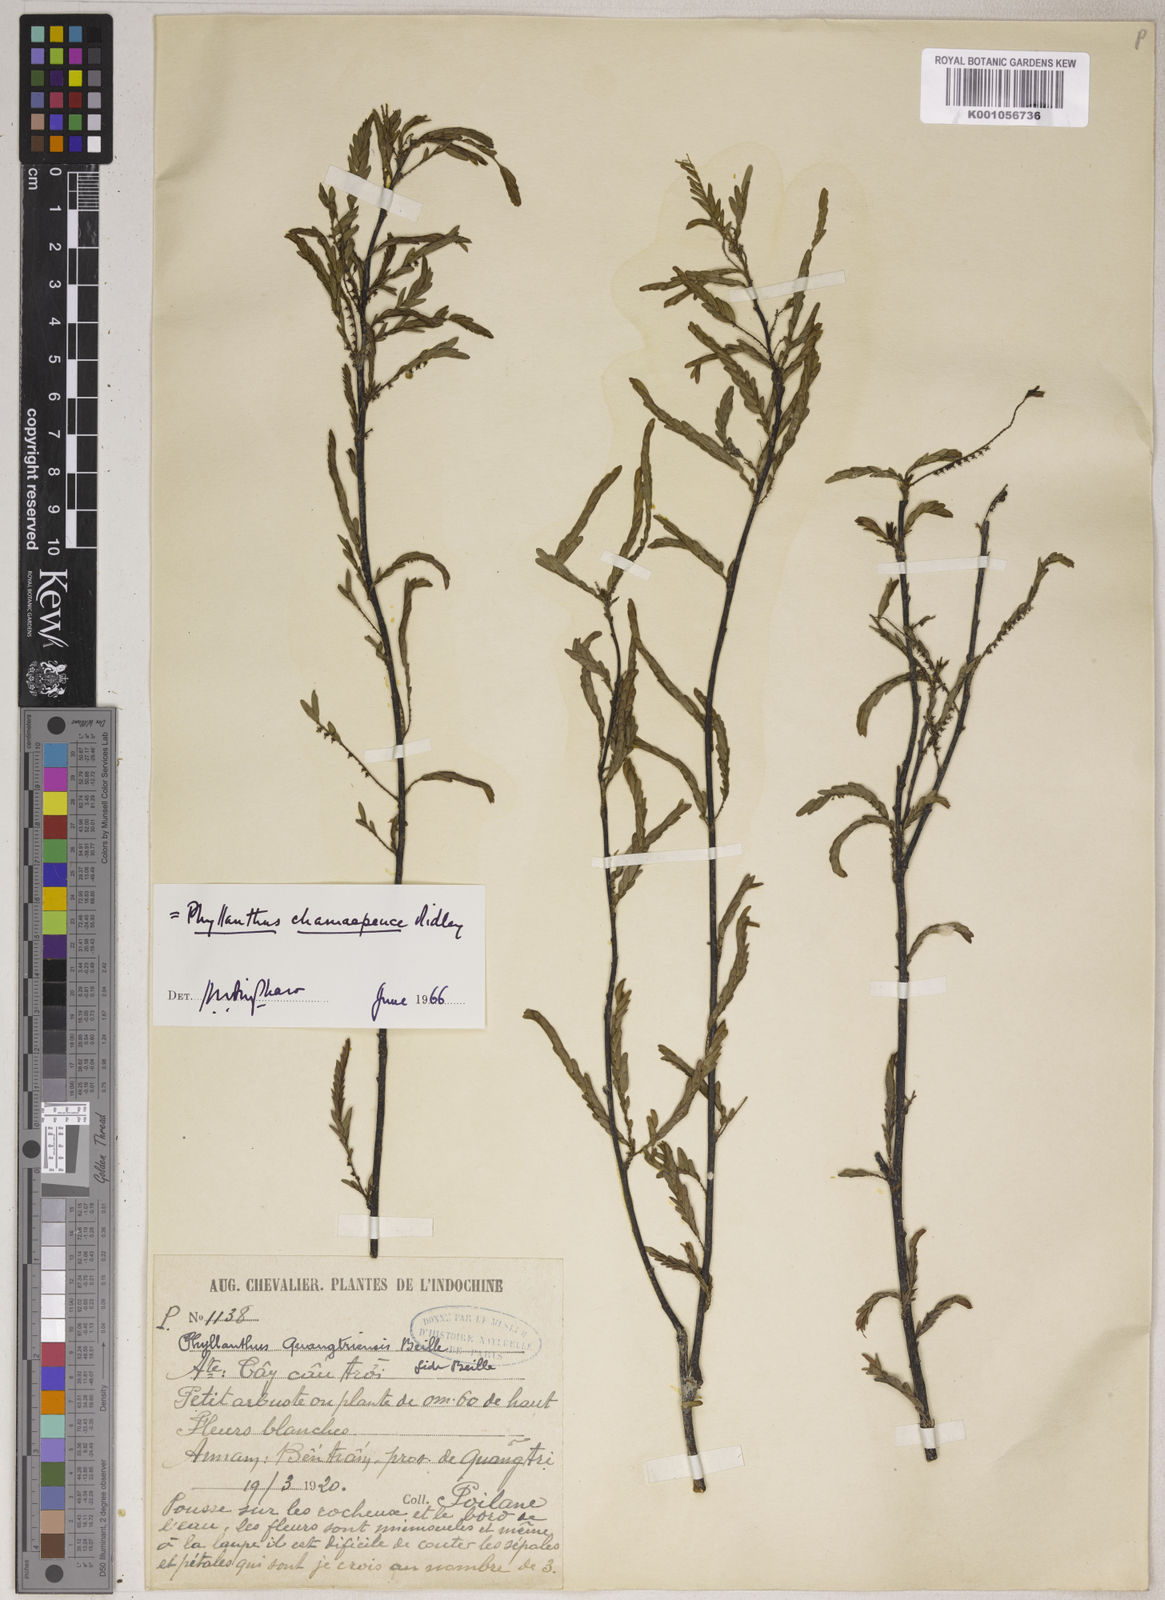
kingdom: Plantae
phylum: Tracheophyta
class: Magnoliopsida
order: Malpighiales
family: Phyllanthaceae
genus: Phyllanthus
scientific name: Phyllanthus chamaepeuce
